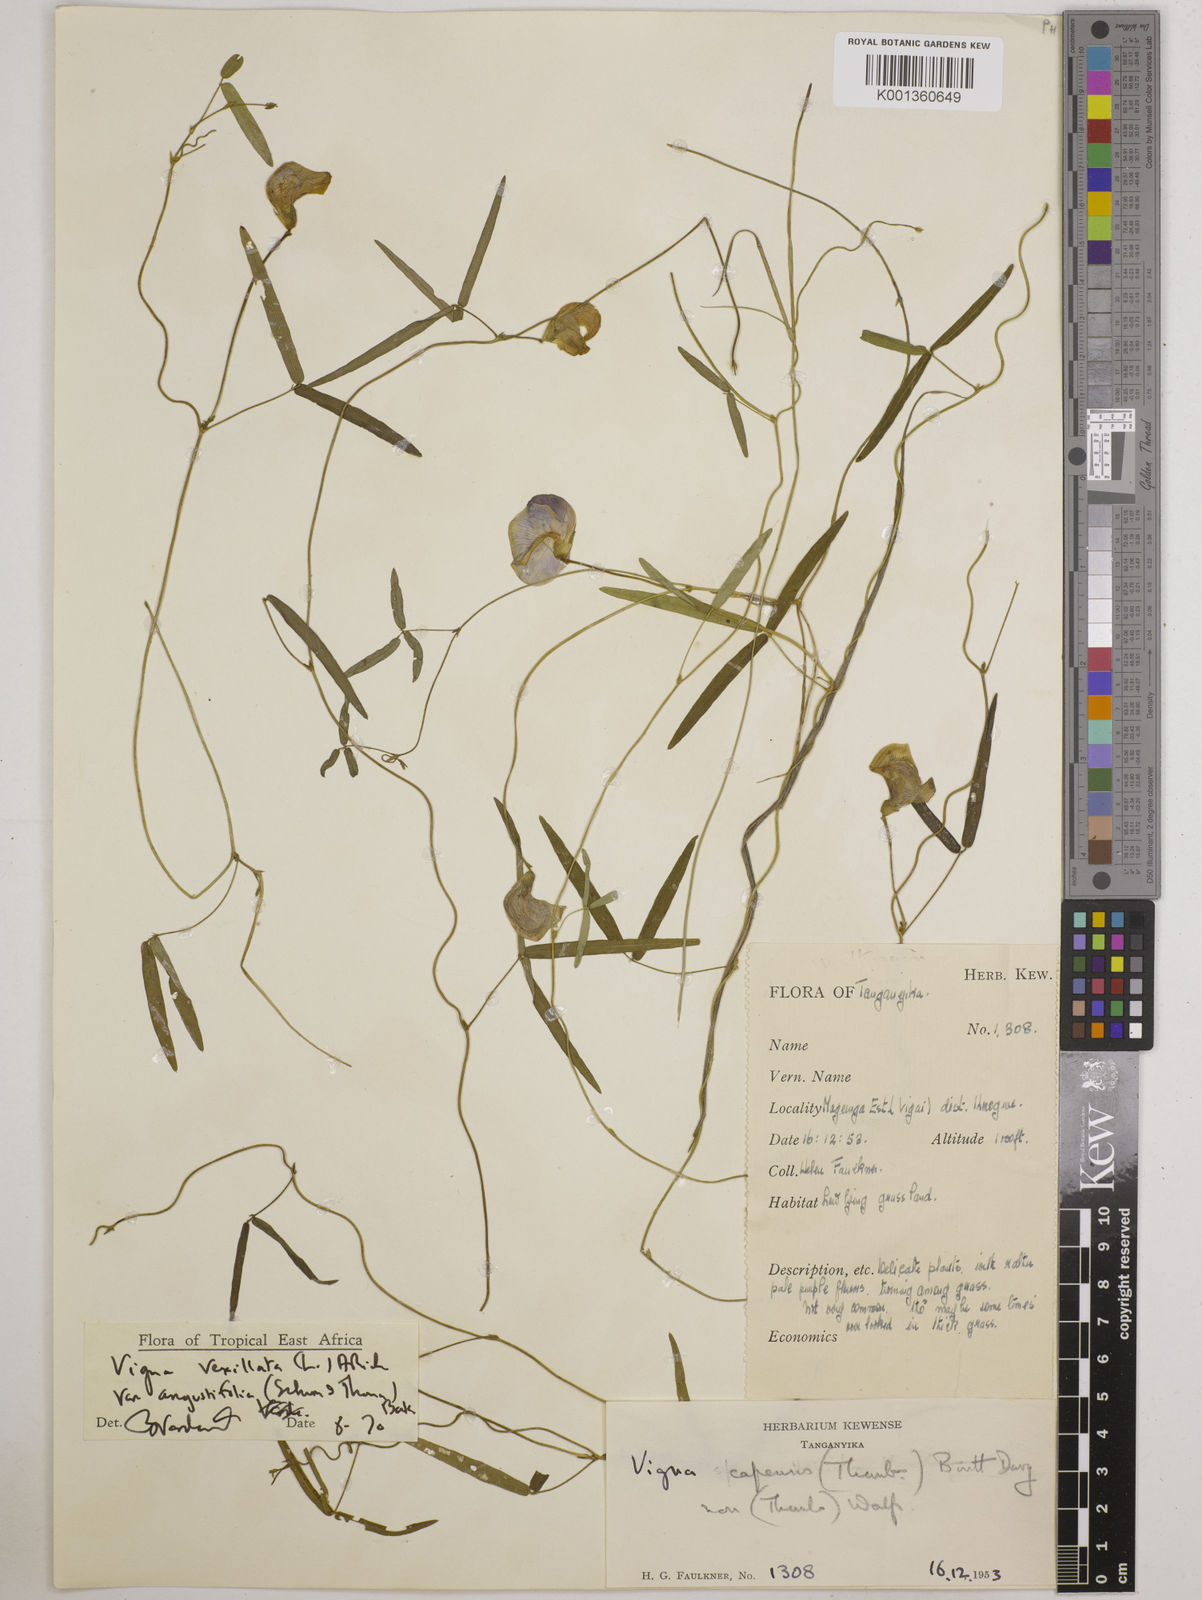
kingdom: Plantae
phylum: Tracheophyta
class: Magnoliopsida
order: Fabales
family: Fabaceae
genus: Vigna
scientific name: Vigna vexillata
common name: Zombi pea
